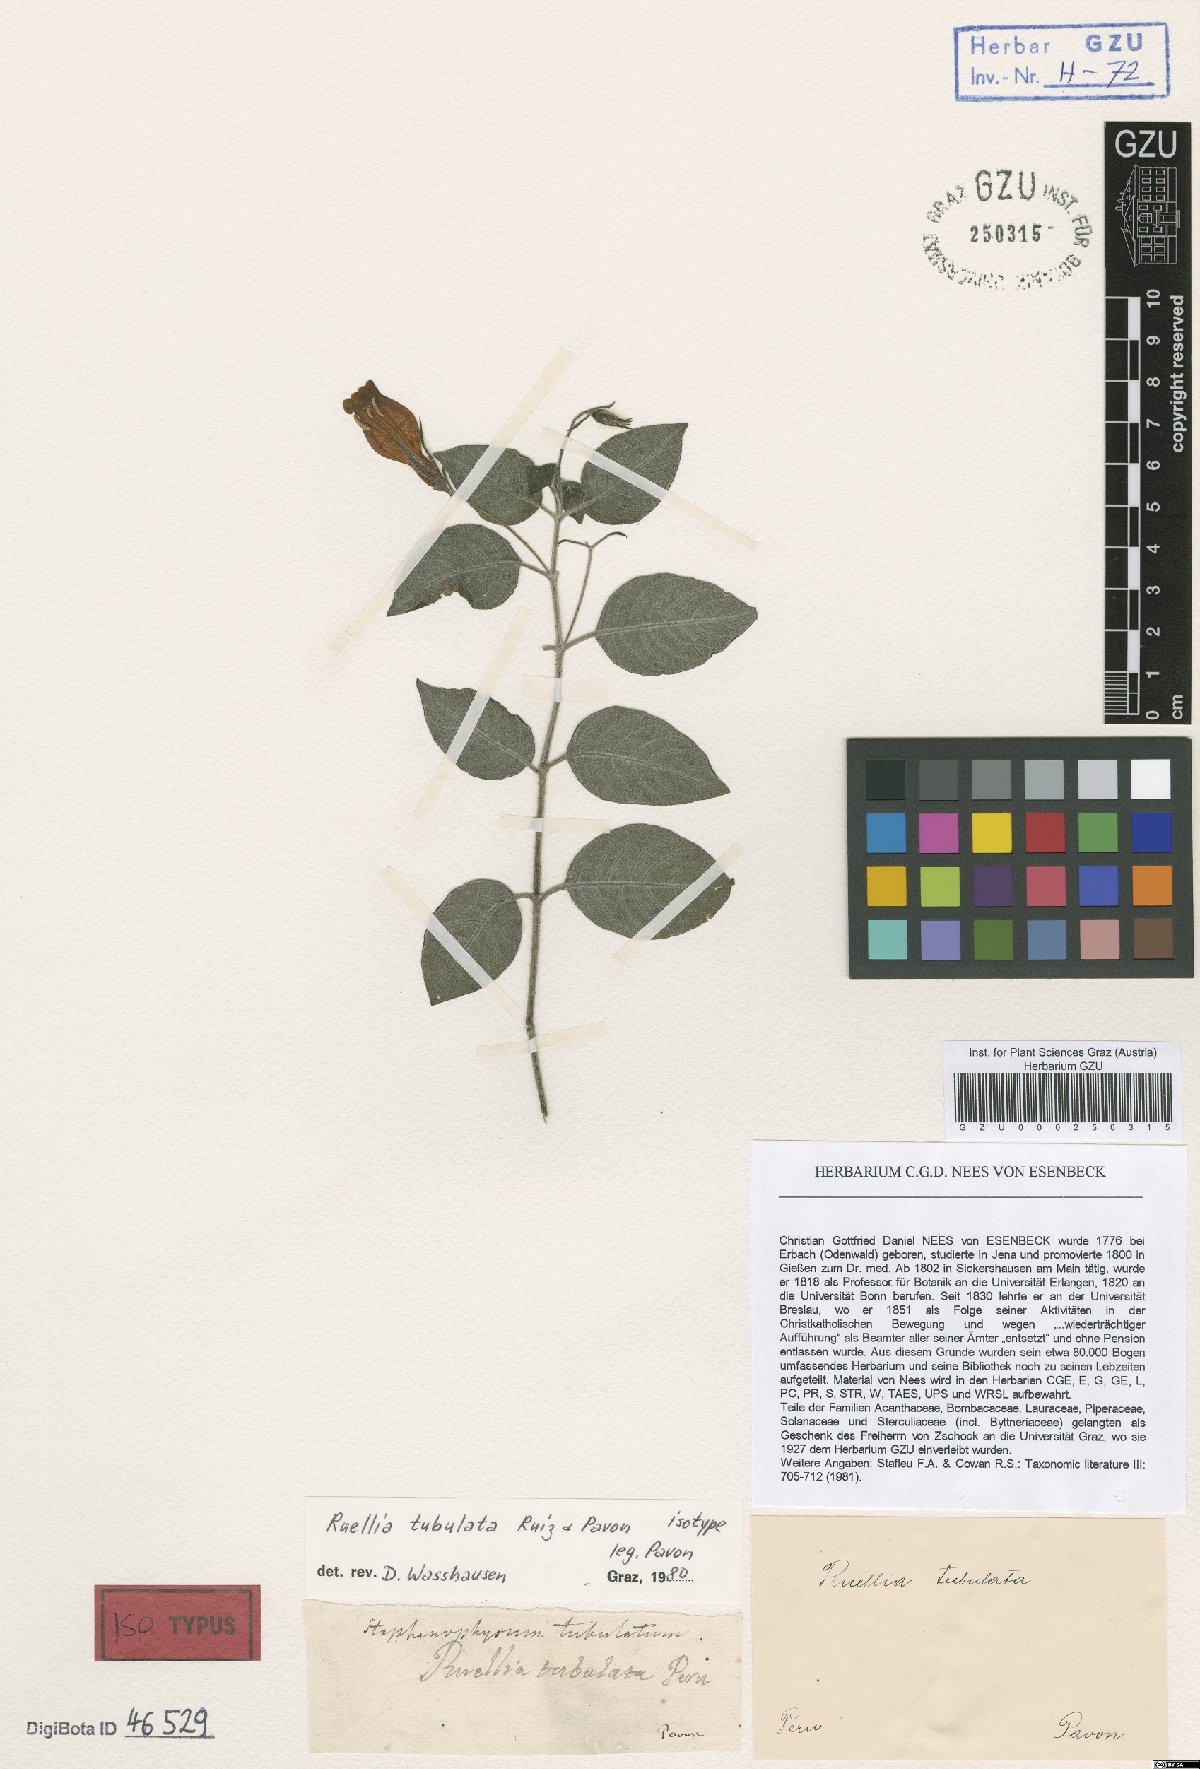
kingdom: Plantae
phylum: Tracheophyta
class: Magnoliopsida
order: Lamiales
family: Acanthaceae
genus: Ruellia
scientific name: Ruellia tubulata
